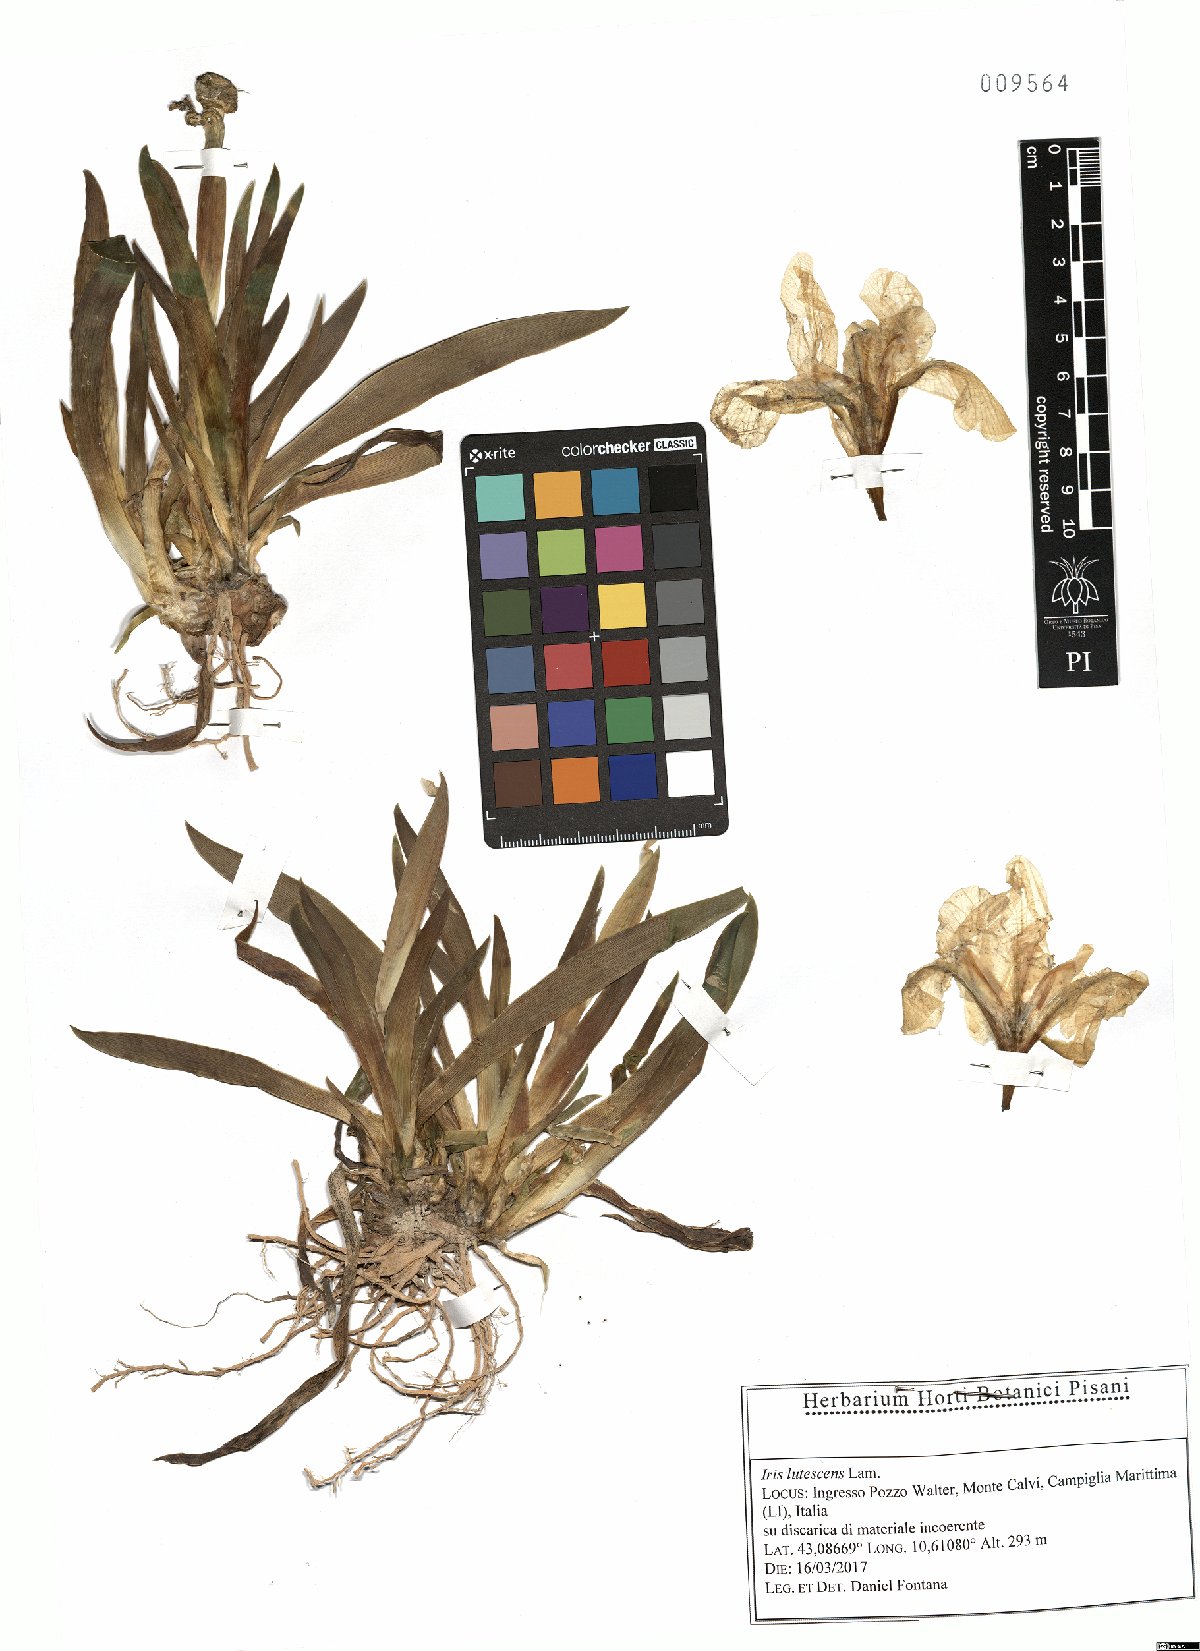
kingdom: Plantae
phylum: Tracheophyta
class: Liliopsida
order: Asparagales
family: Iridaceae
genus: Iris
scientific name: Iris lutescens
